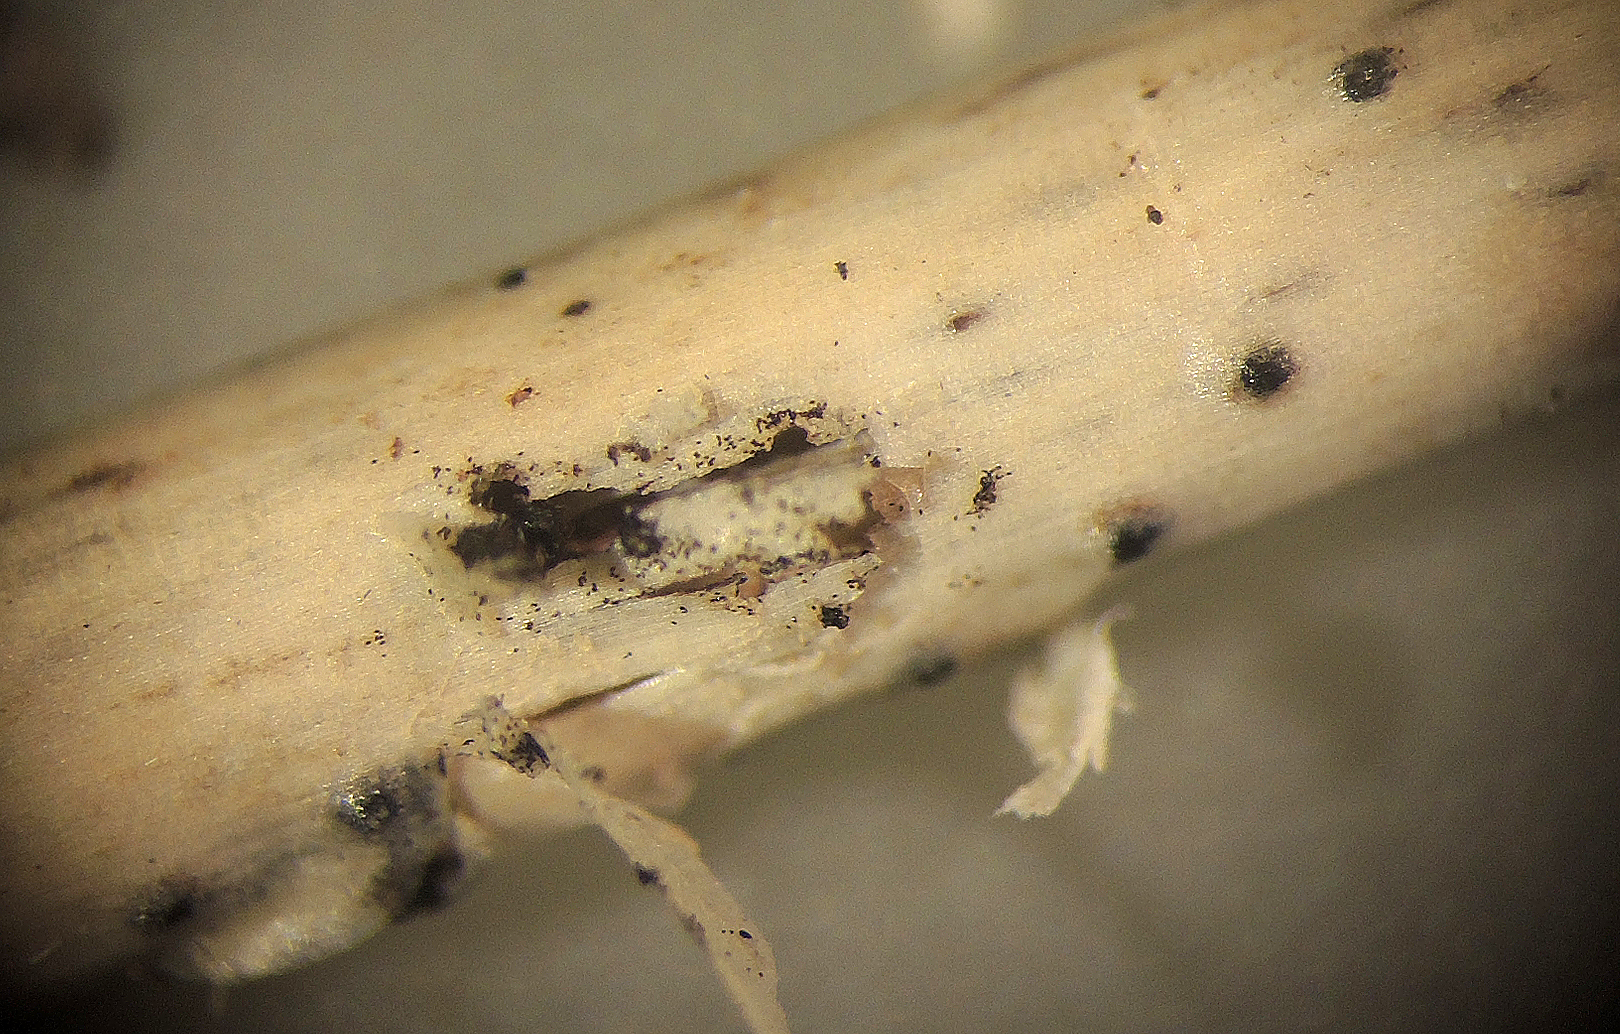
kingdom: Fungi
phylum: Ascomycota
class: Sordariomycetes
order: Amphisphaeriales
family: Amphisphaeriaceae
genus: Chitonospora
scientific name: Chitonospora ammophila
